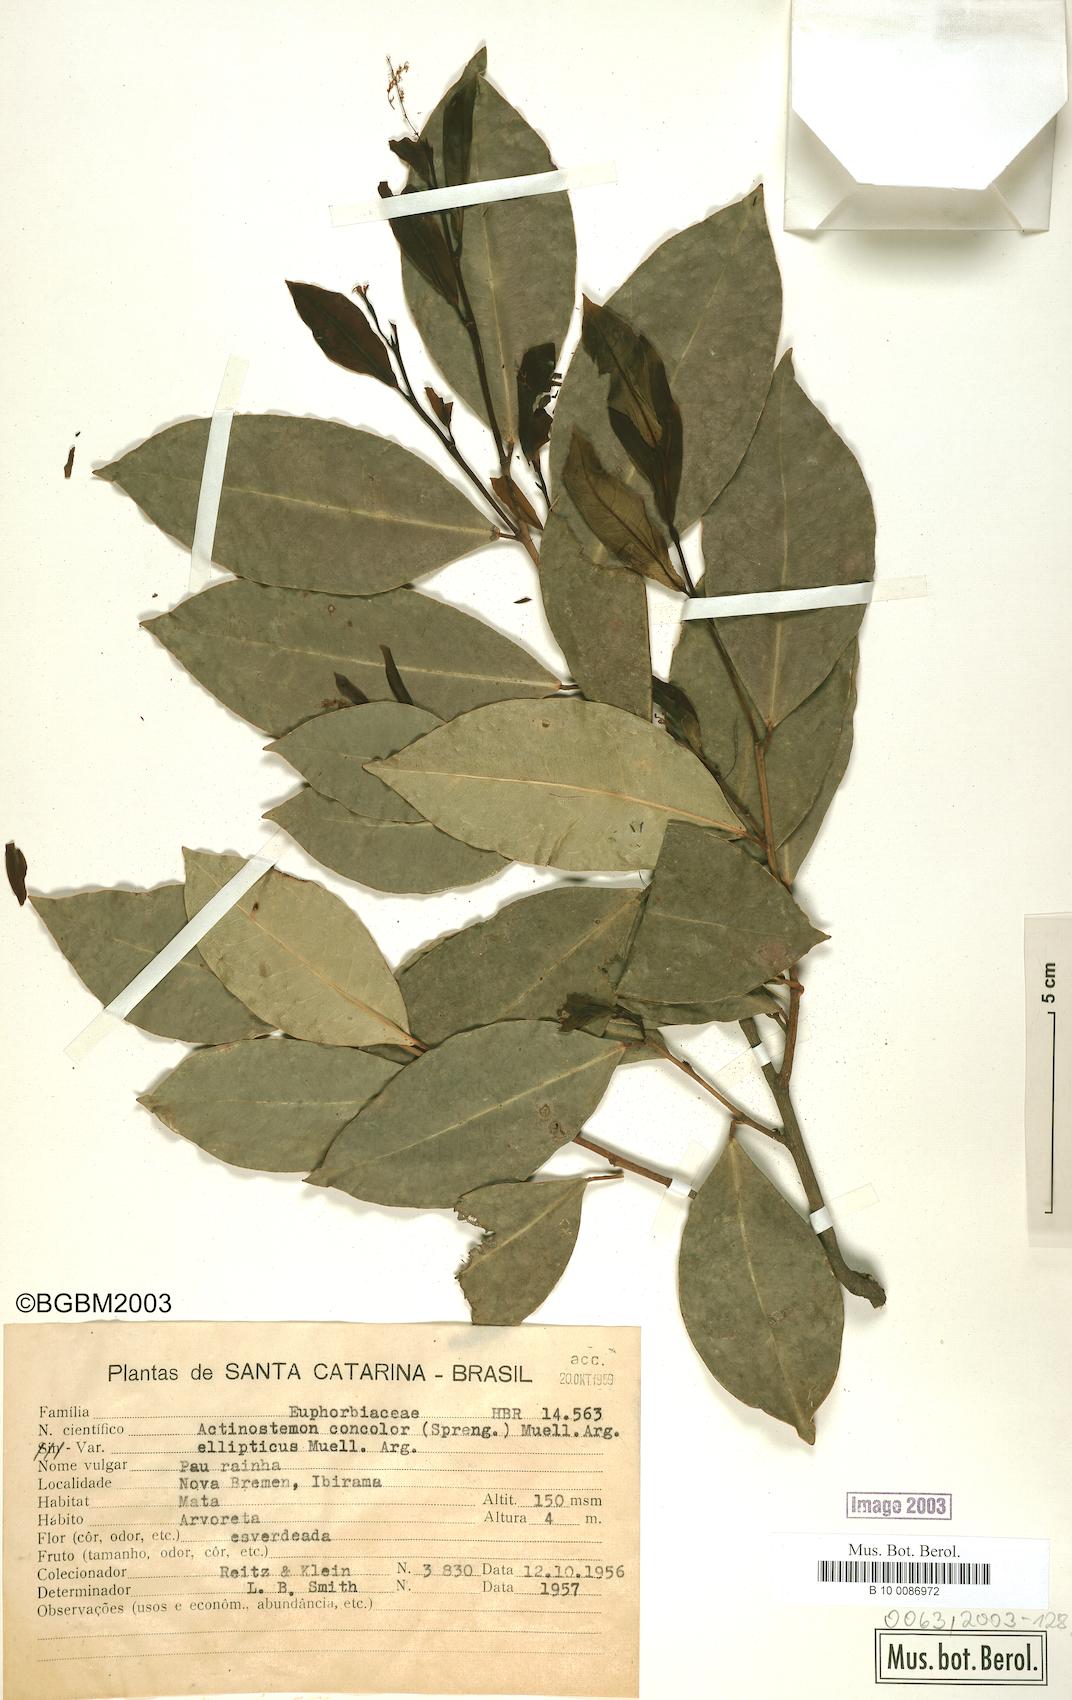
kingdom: Plantae
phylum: Tracheophyta
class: Magnoliopsida
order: Malpighiales
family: Euphorbiaceae
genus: Actinostemon
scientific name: Actinostemon concolor
